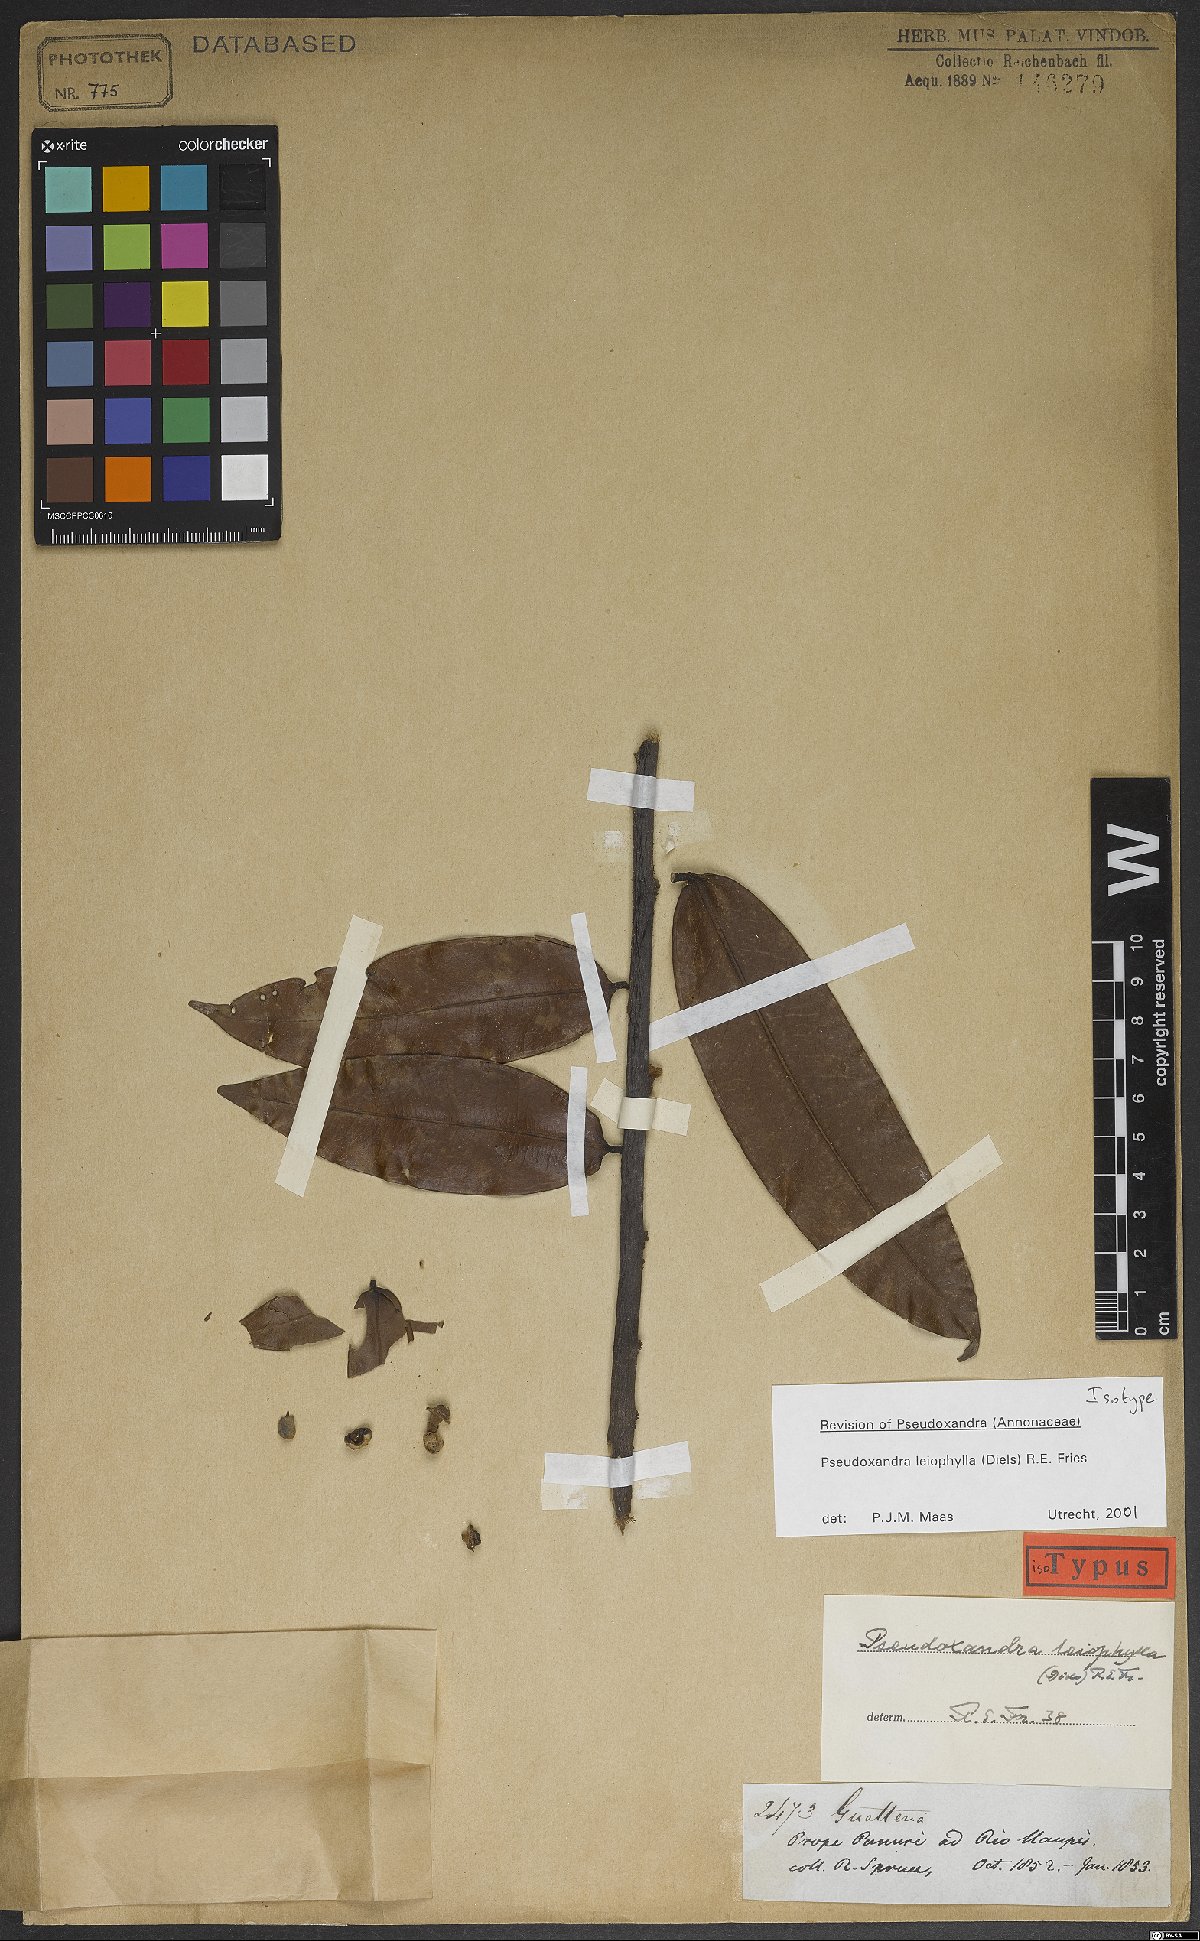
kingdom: Plantae
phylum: Tracheophyta
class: Magnoliopsida
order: Magnoliales
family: Annonaceae
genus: Pseudoxandra
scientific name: Pseudoxandra leiophylla
